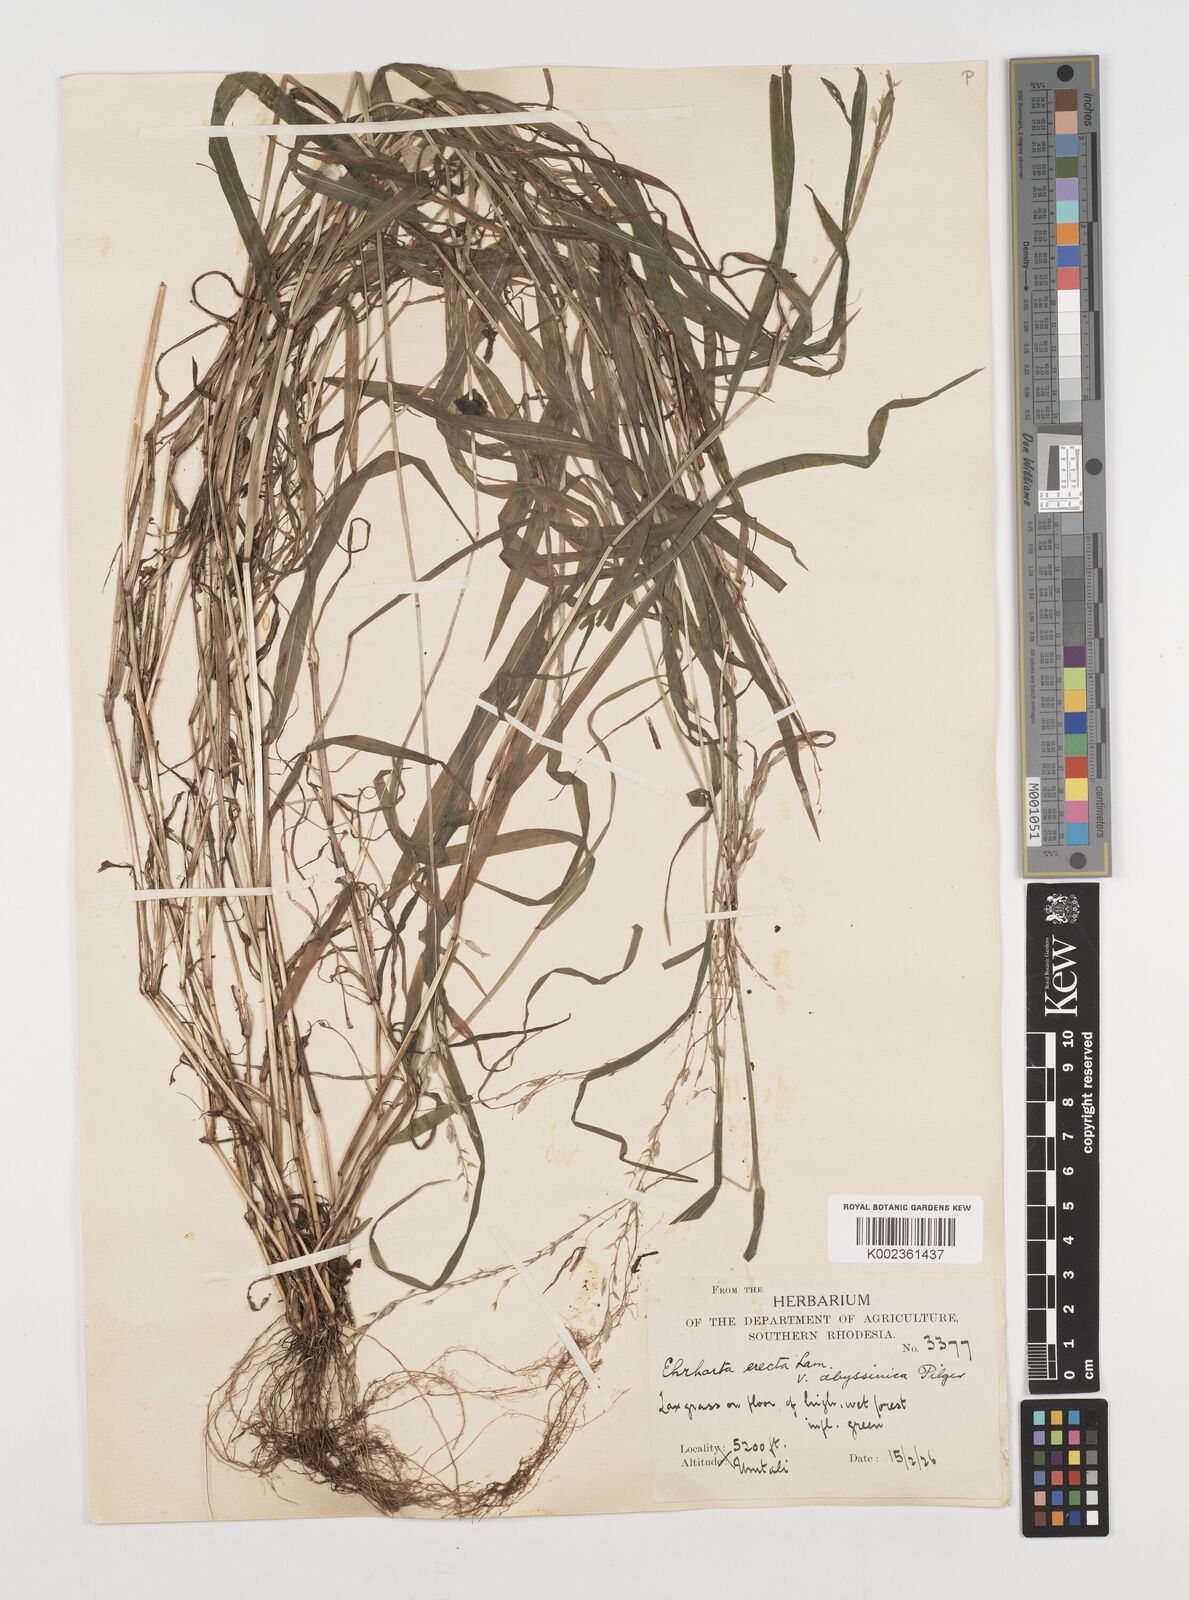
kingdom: Plantae
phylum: Tracheophyta
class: Liliopsida
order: Poales
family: Poaceae
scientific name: Poaceae
